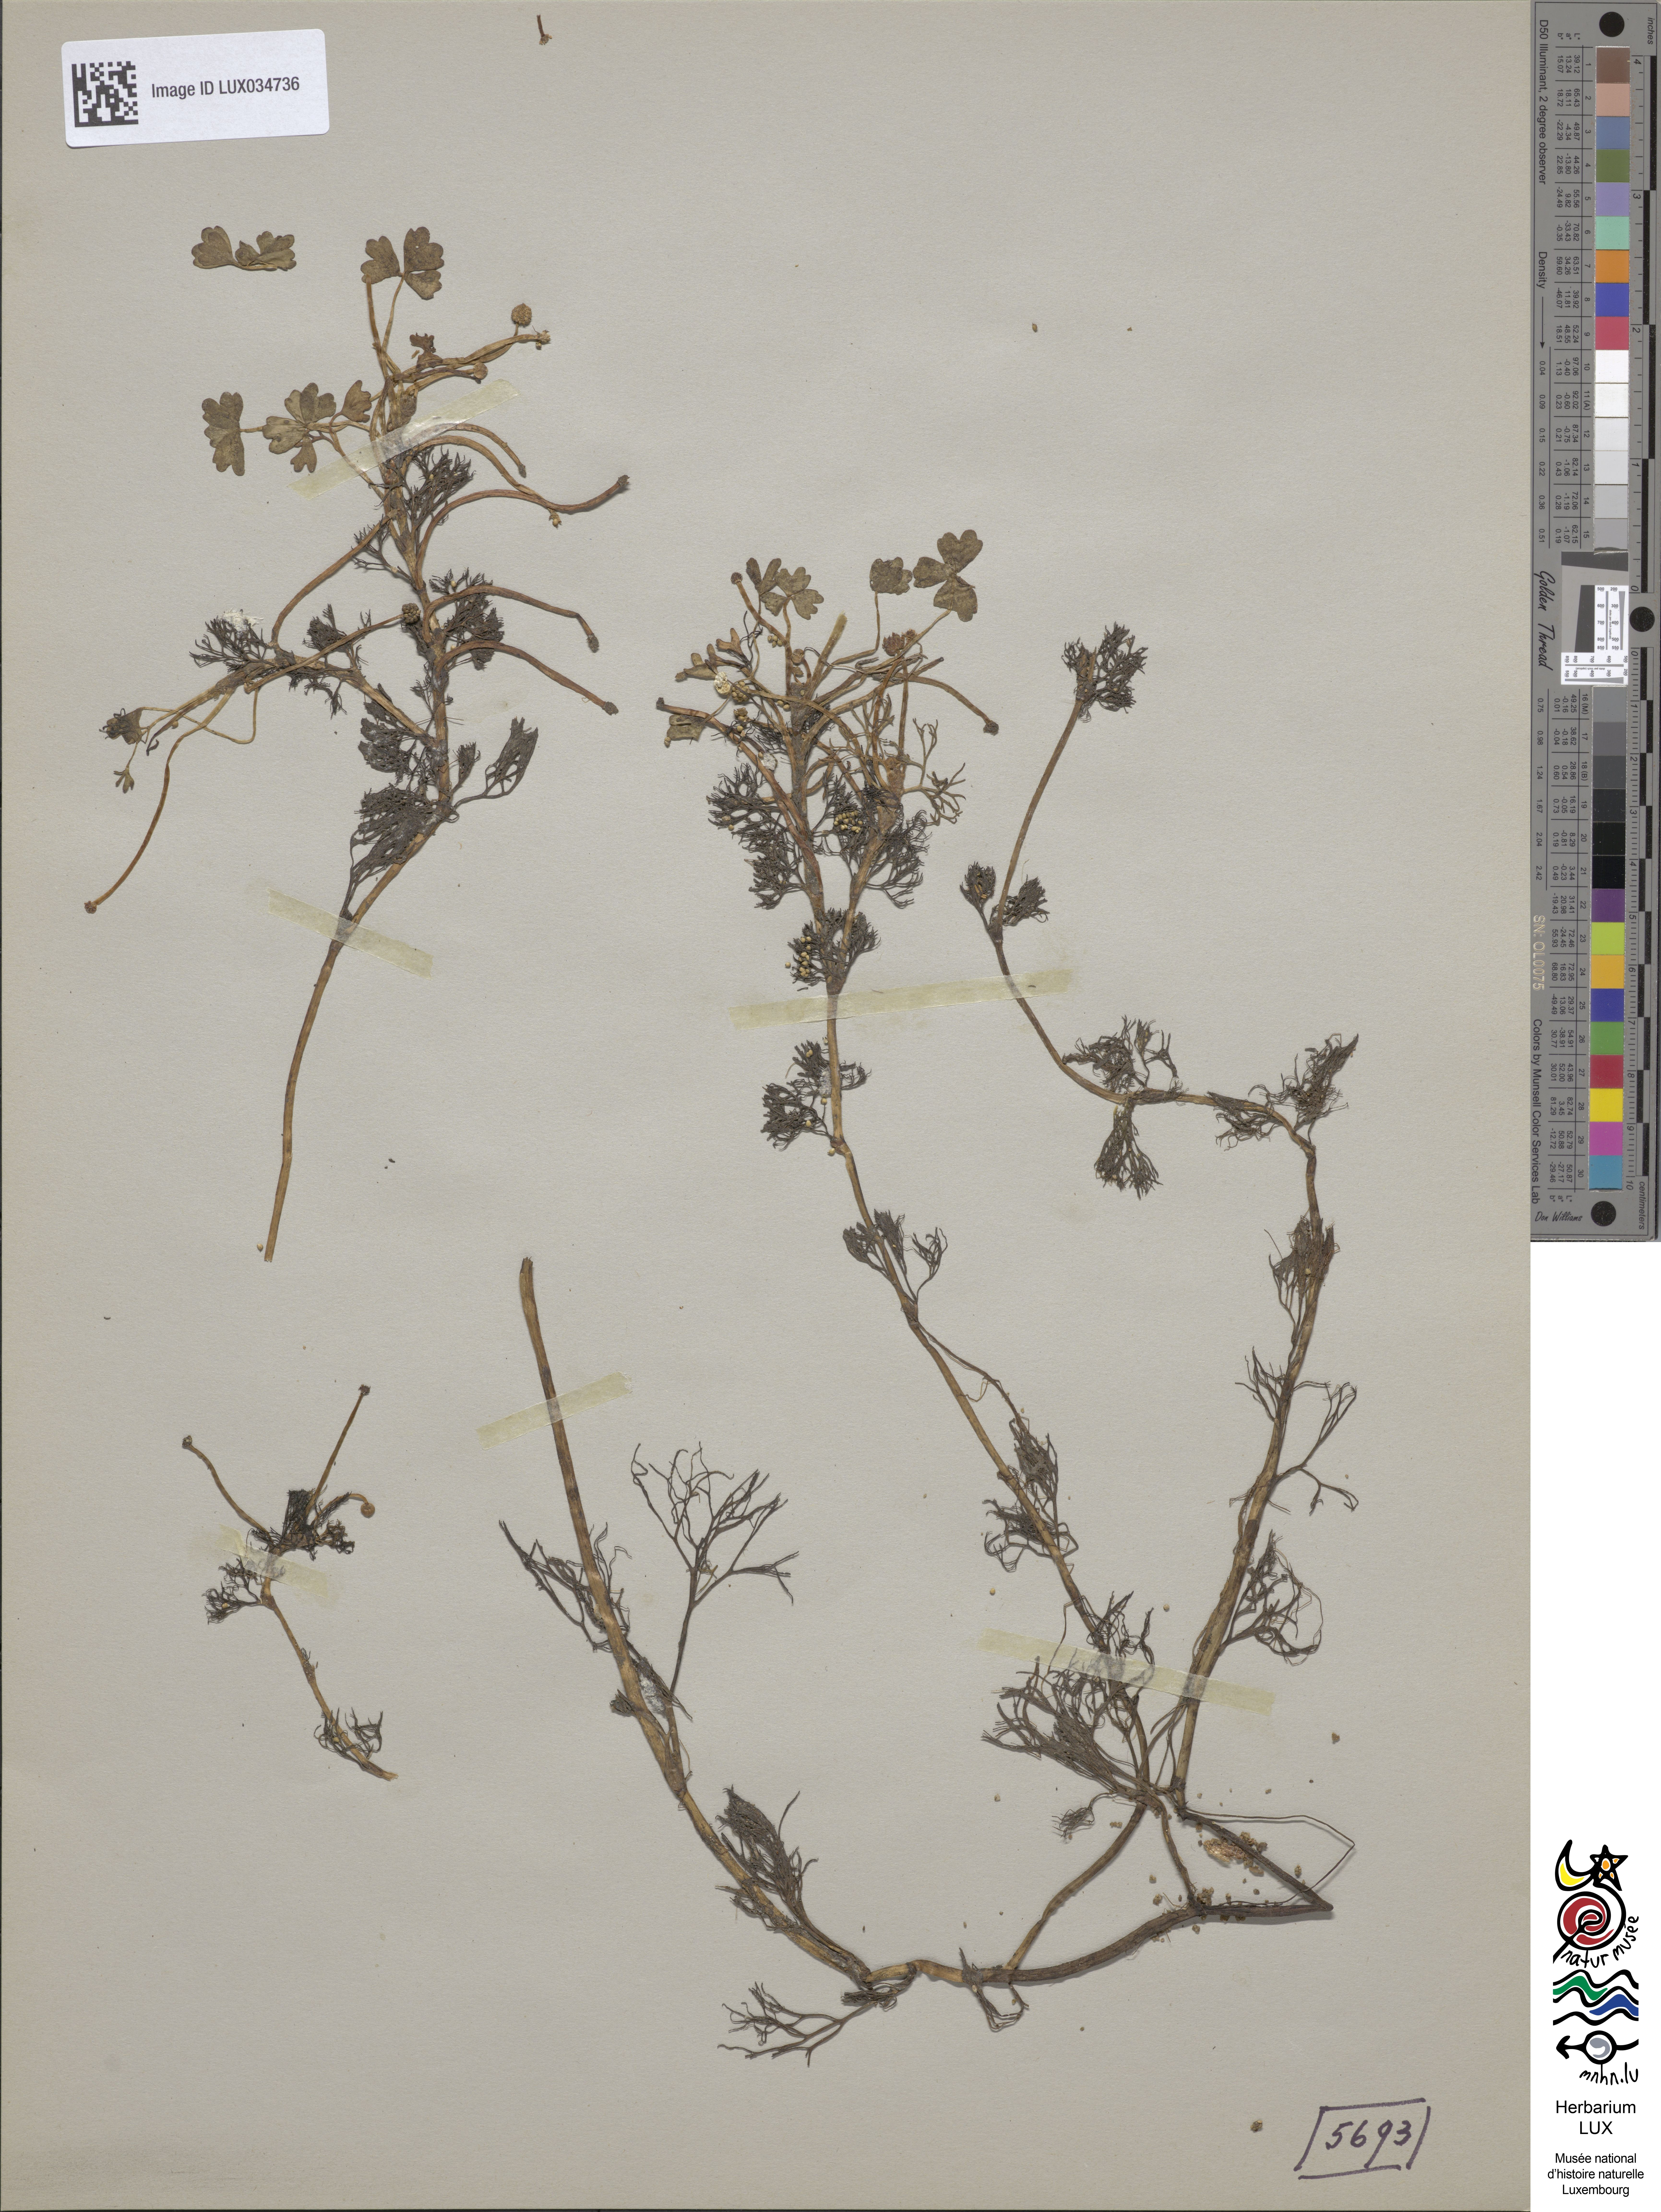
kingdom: Plantae
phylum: Tracheophyta
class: Magnoliopsida
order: Ranunculales
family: Ranunculaceae
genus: Ranunculus
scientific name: Ranunculus peltatus
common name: Pond water-crowfoot
